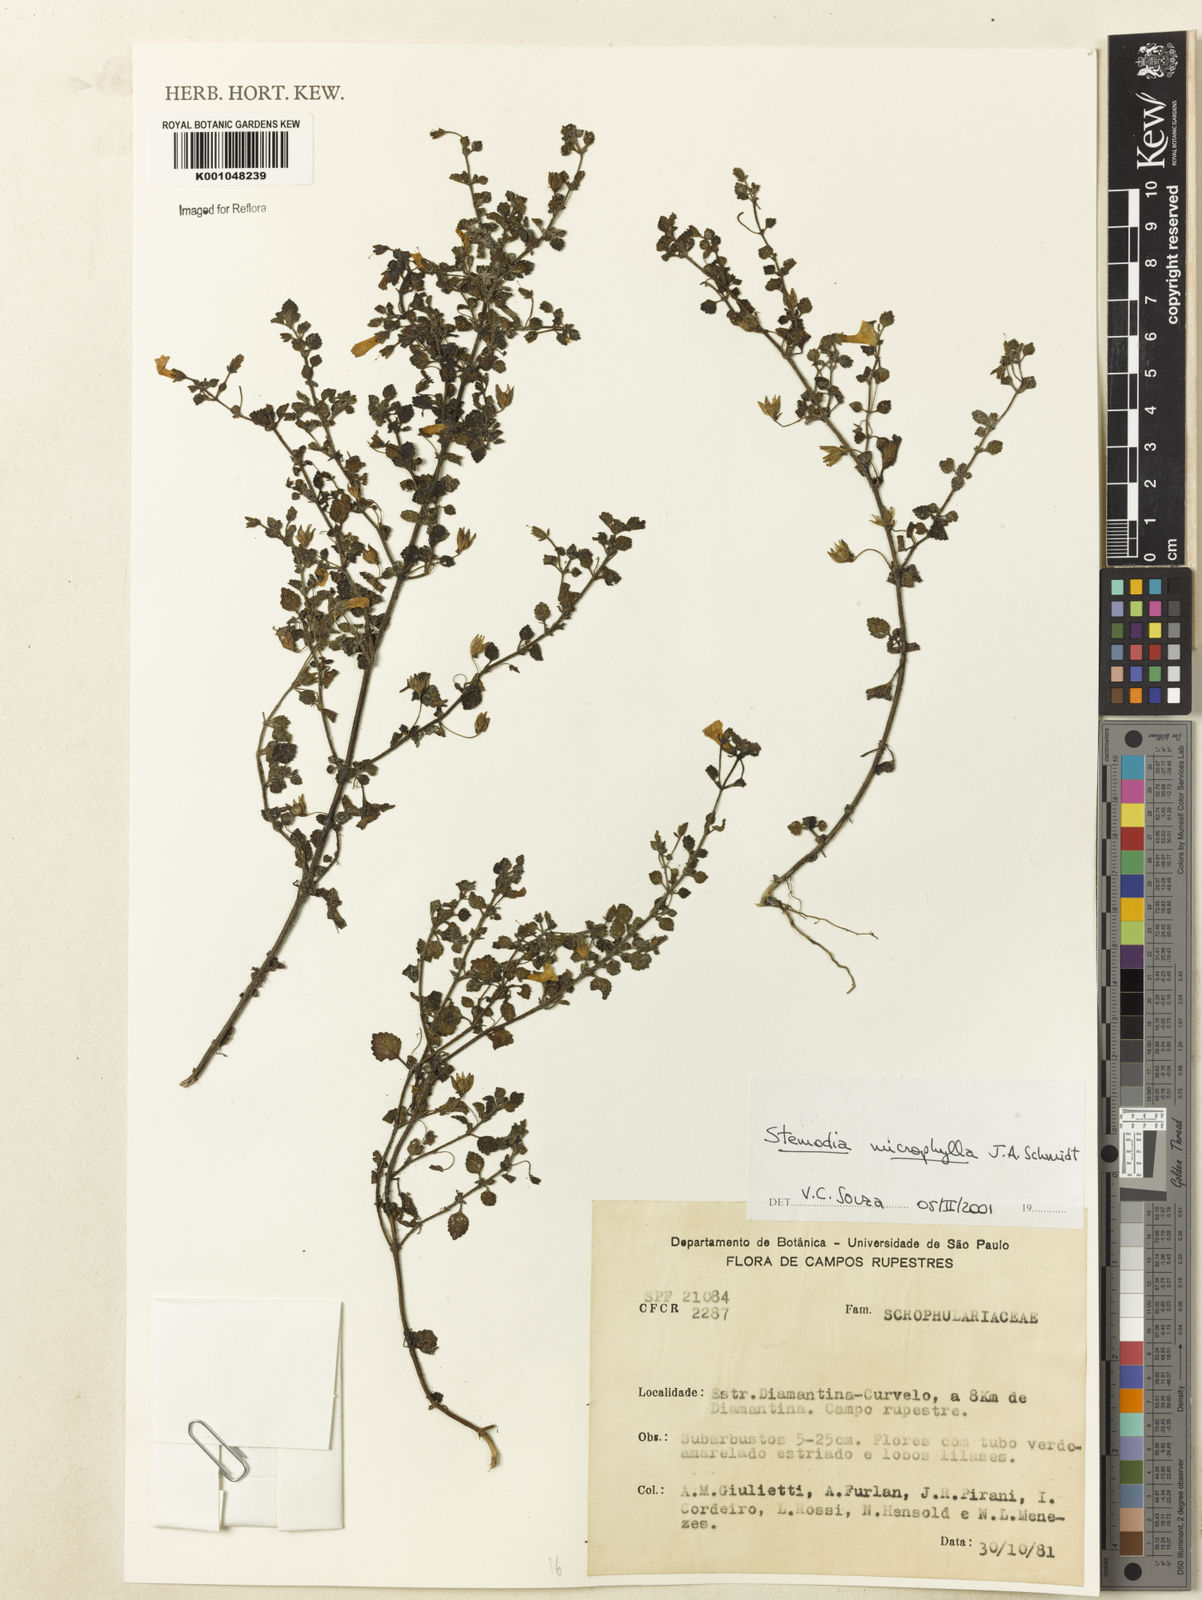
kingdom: Plantae
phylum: Tracheophyta
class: Magnoliopsida
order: Lamiales
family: Plantaginaceae
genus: Umbraria
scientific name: Umbraria microphylla
